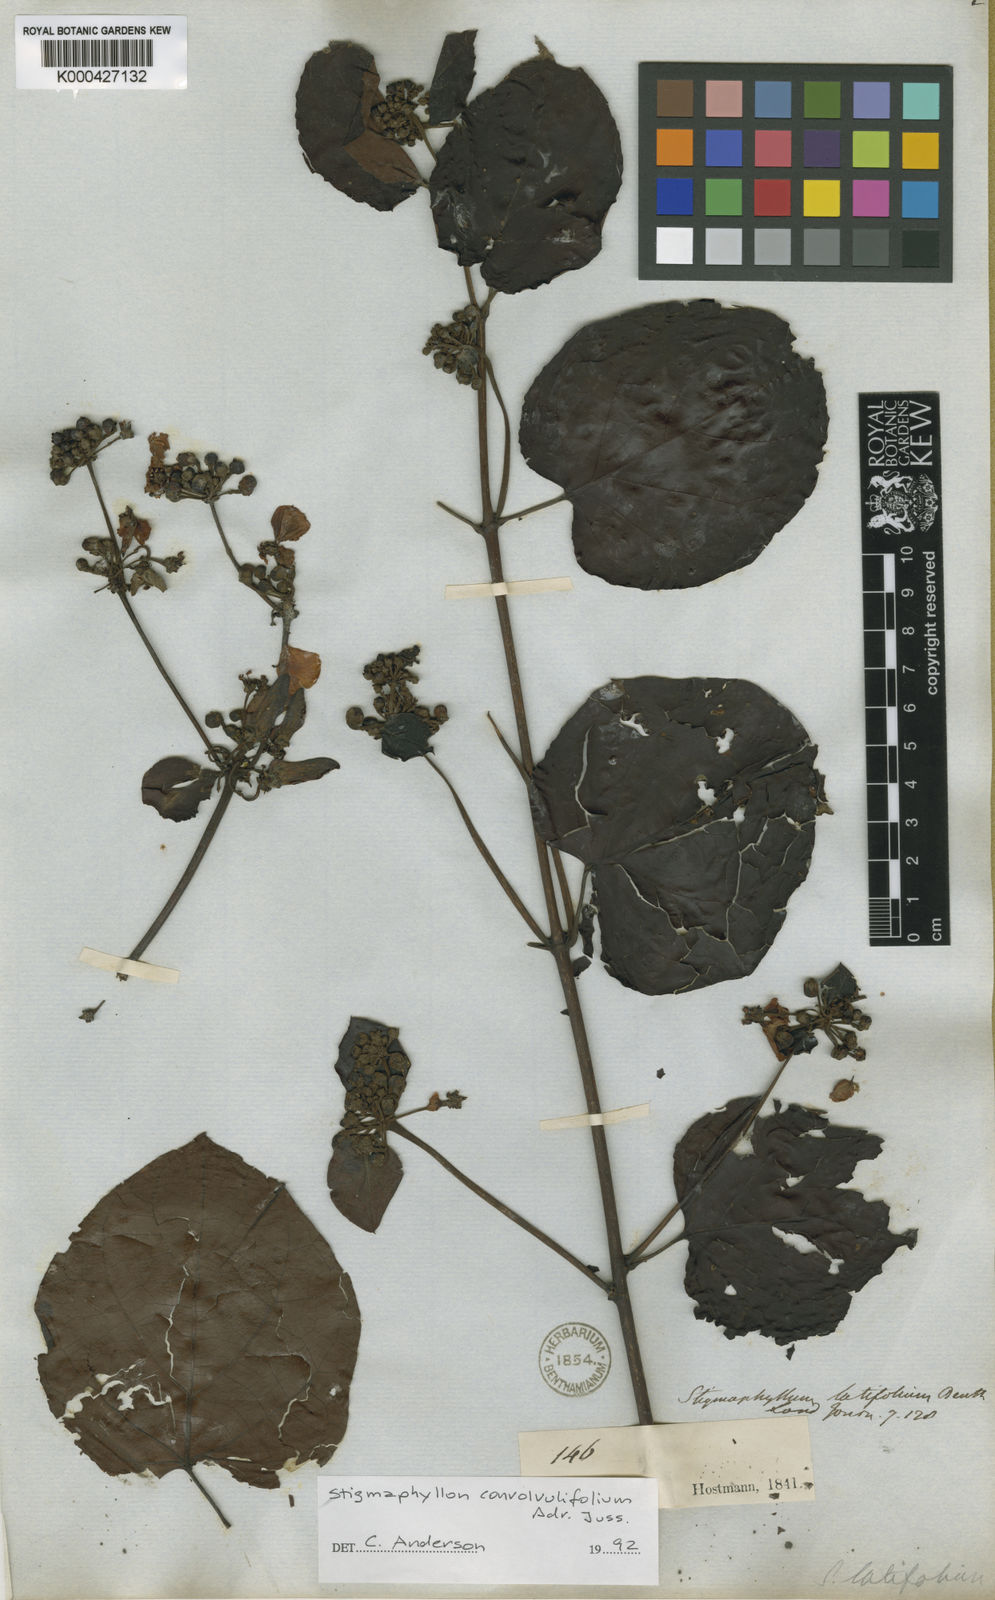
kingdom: Plantae
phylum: Tracheophyta
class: Magnoliopsida
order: Malpighiales
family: Malpighiaceae
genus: Stigmaphyllon
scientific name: Stigmaphyllon convolvulifolium
